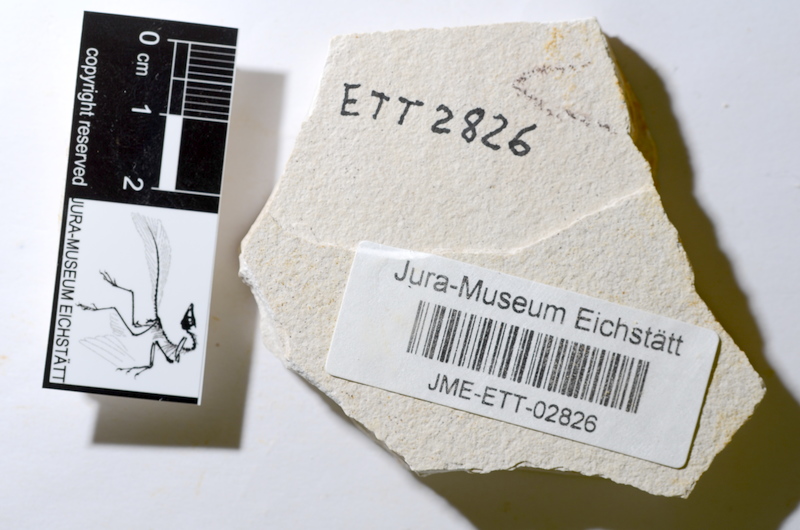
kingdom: Animalia
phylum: Chordata
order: Salmoniformes
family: Orthogonikleithridae
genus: Orthogonikleithrus
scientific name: Orthogonikleithrus hoelli
